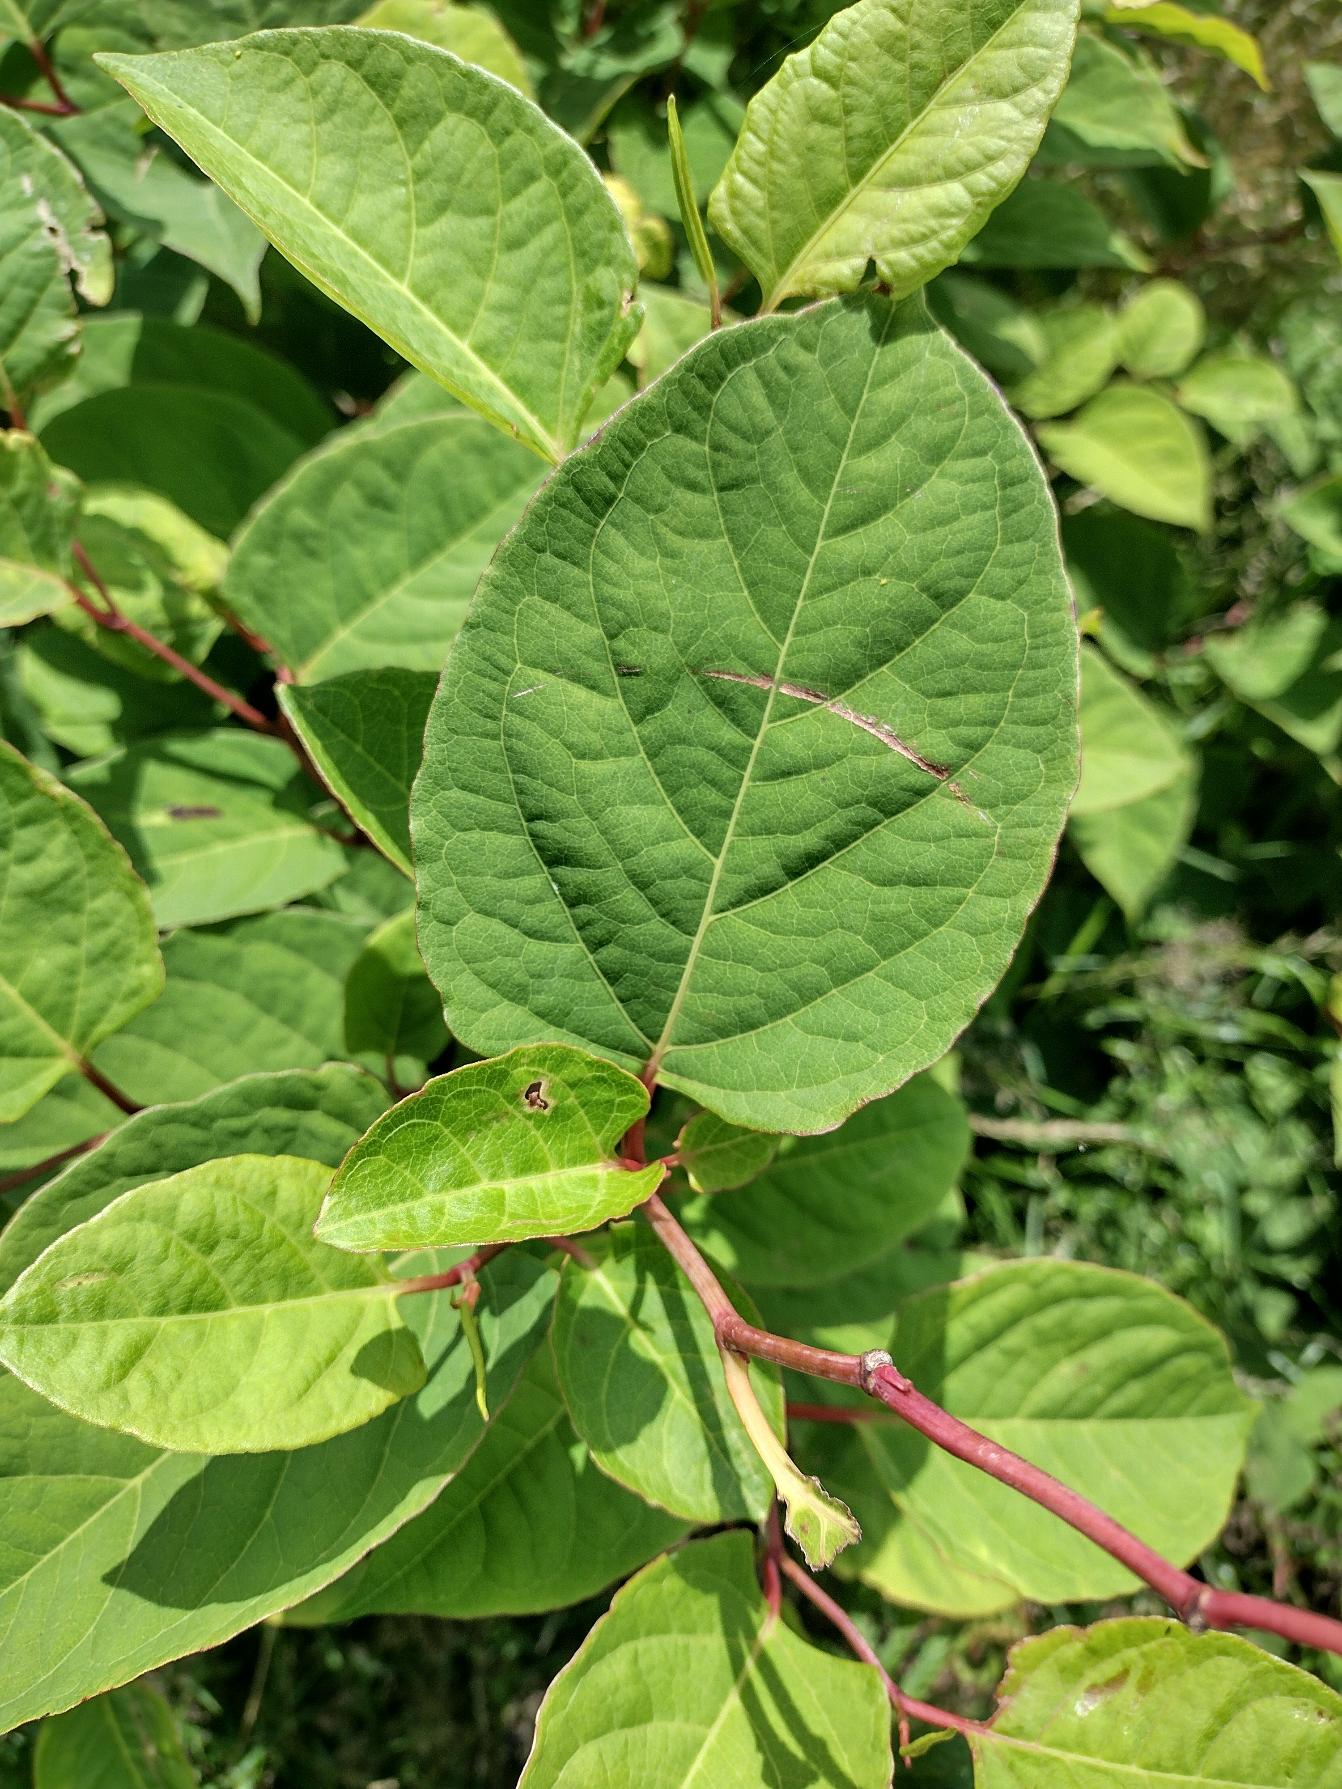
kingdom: Plantae
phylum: Tracheophyta
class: Magnoliopsida
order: Caryophyllales
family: Polygonaceae
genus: Reynoutria
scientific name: Reynoutria japonica
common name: Japan-pileurt
